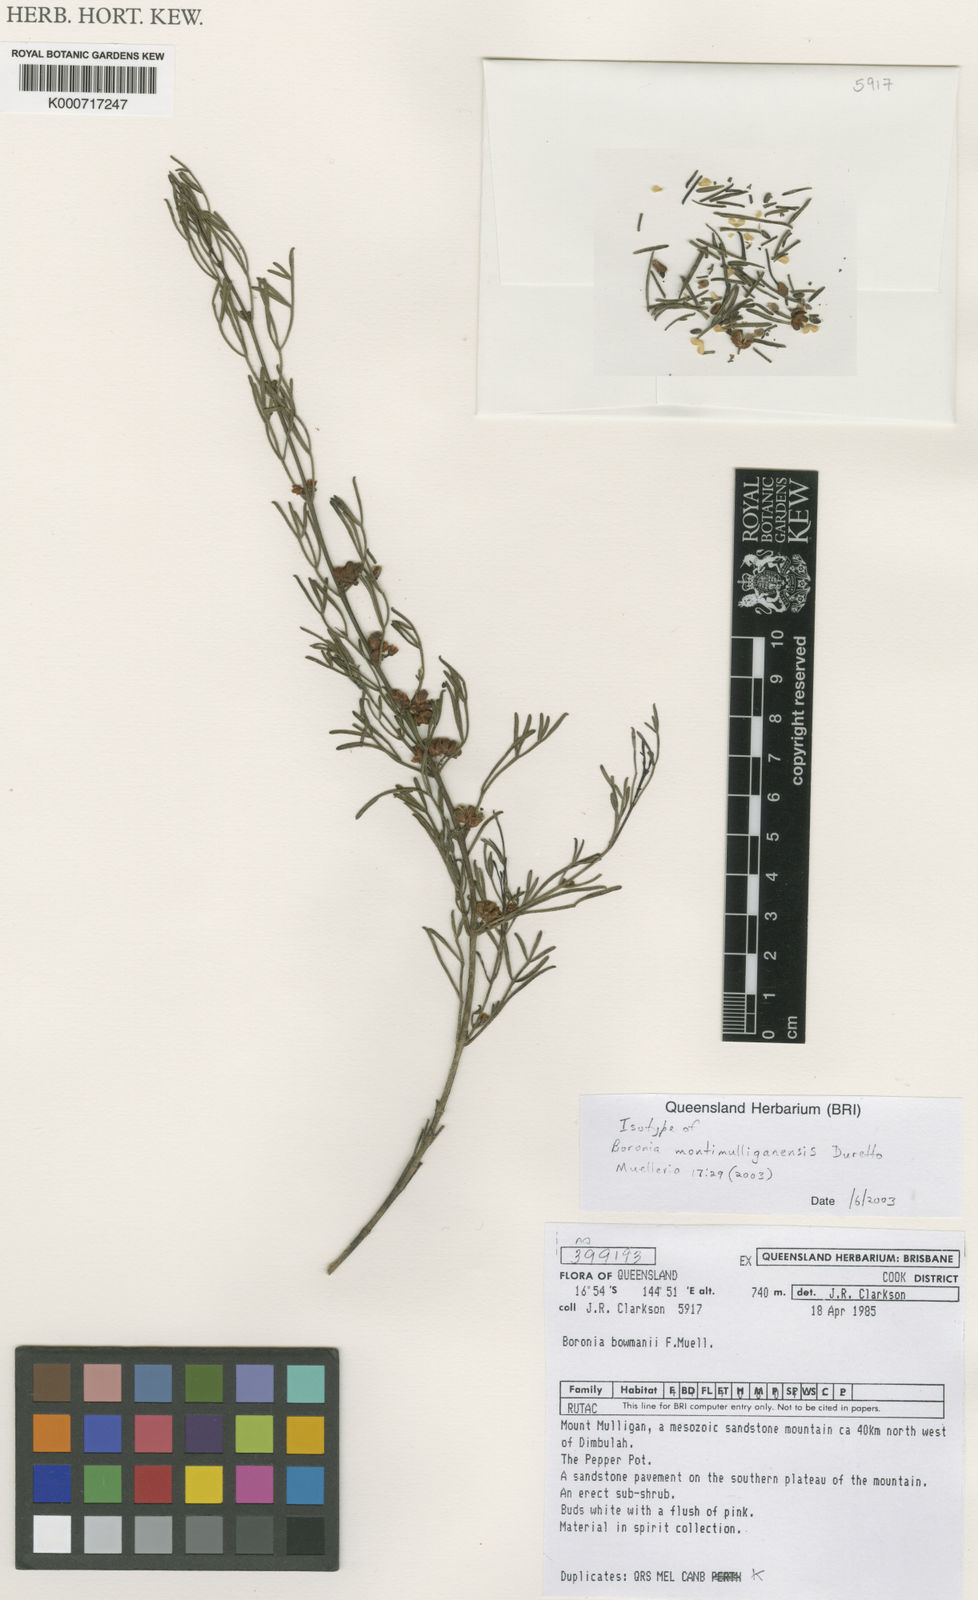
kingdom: Plantae
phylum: Tracheophyta
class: Magnoliopsida
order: Sapindales
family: Rutaceae
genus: Cyanothamnus
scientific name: Cyanothamnus montimulliganensis
